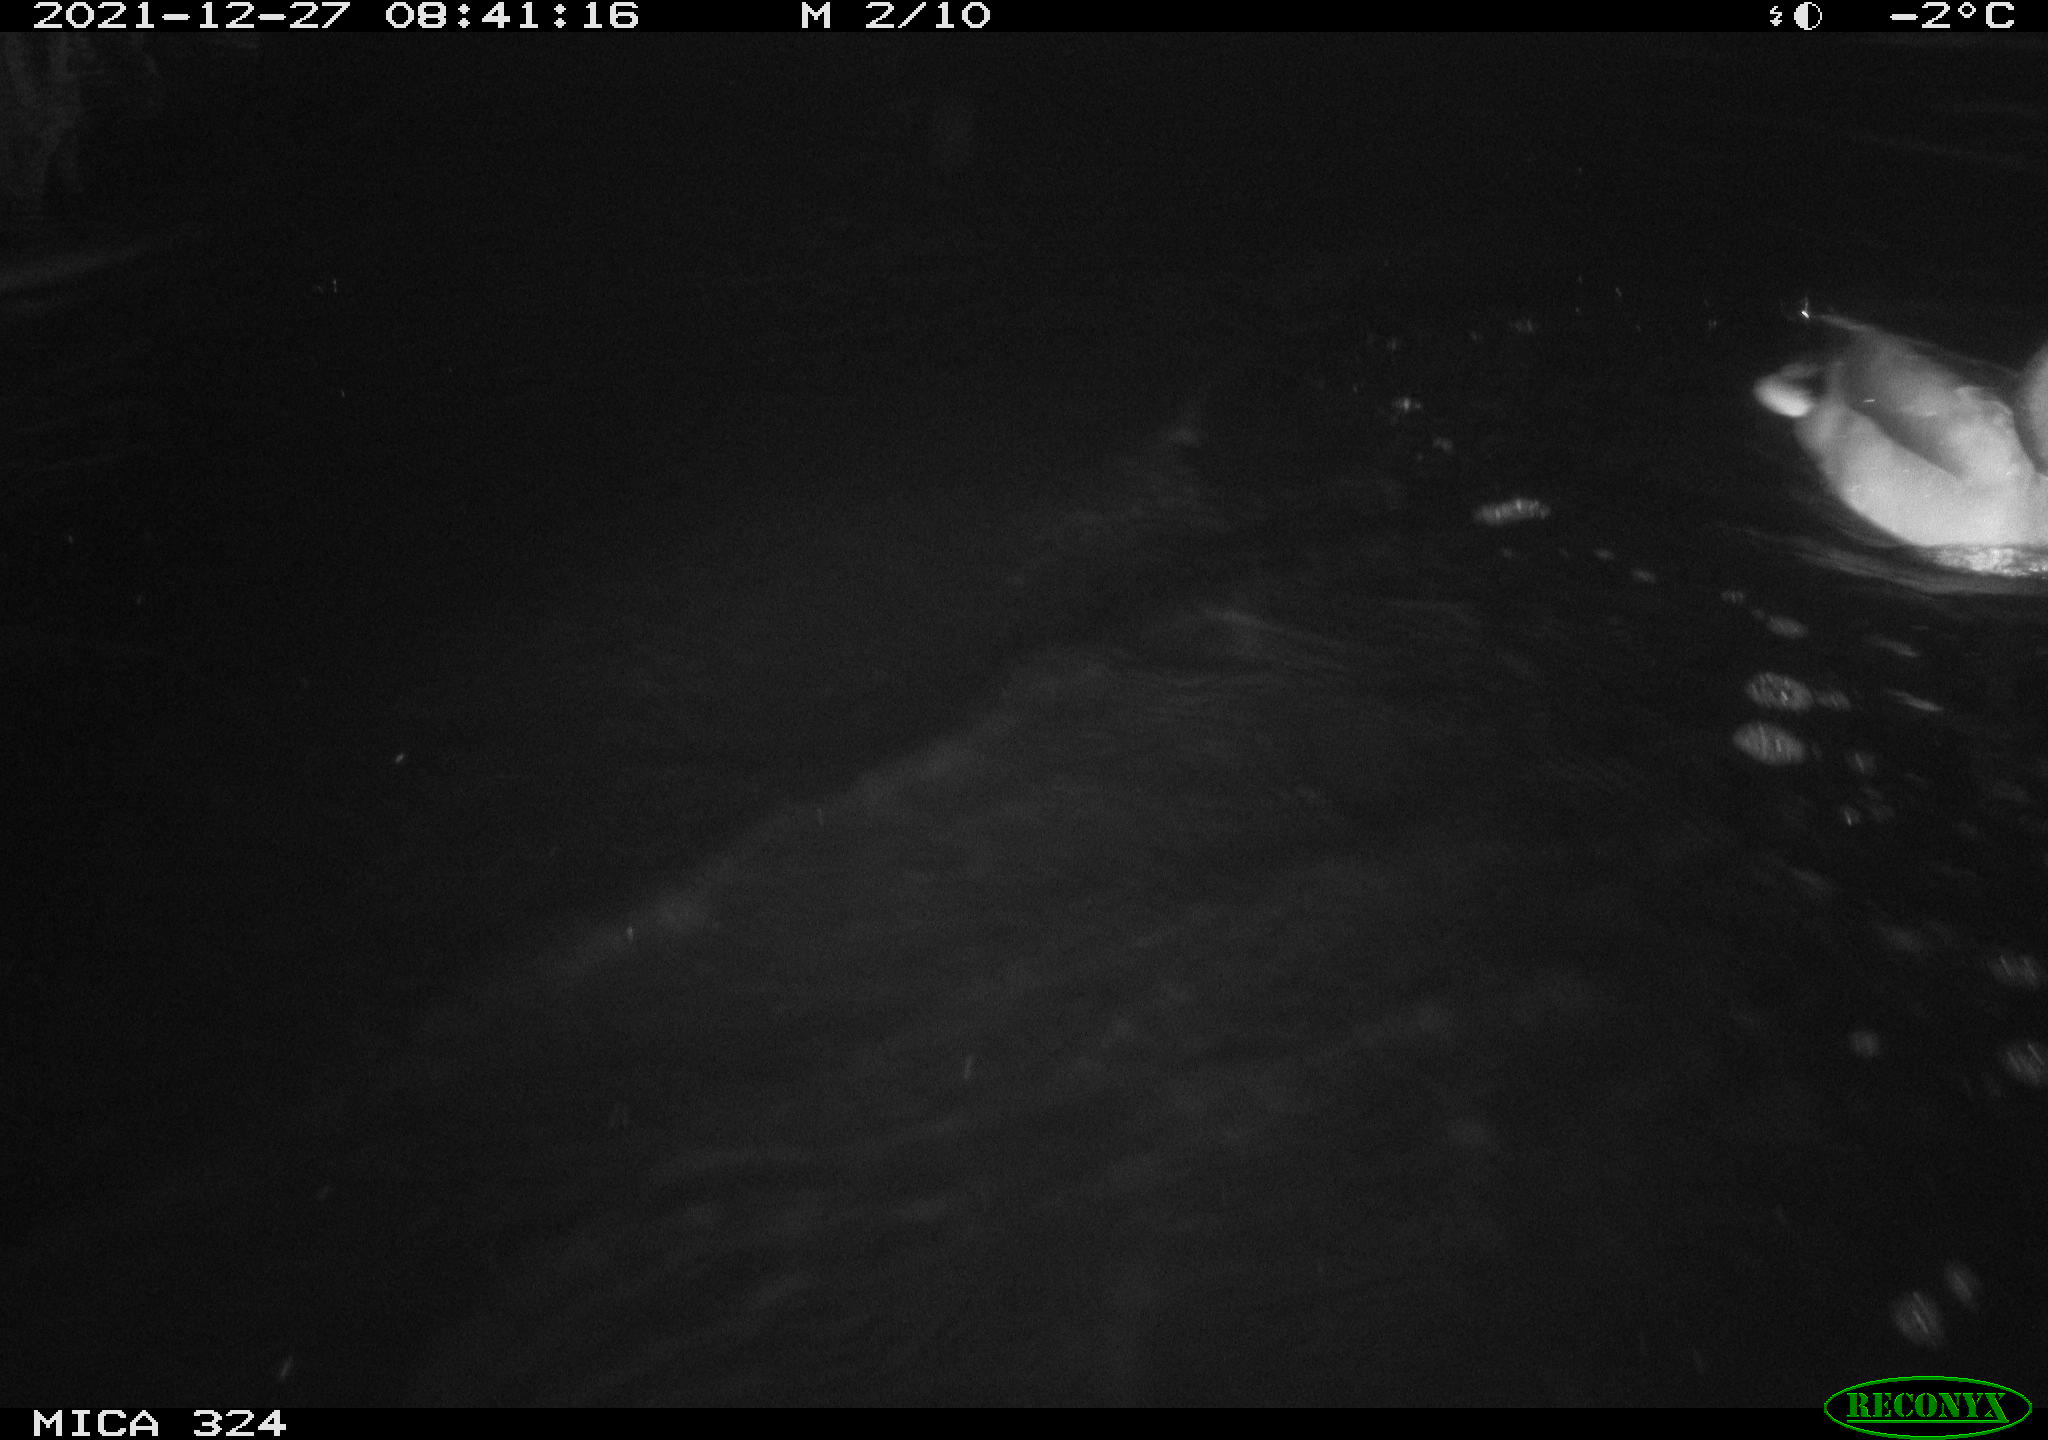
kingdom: Animalia
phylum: Chordata
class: Aves
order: Anseriformes
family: Anatidae
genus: Anas
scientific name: Anas
